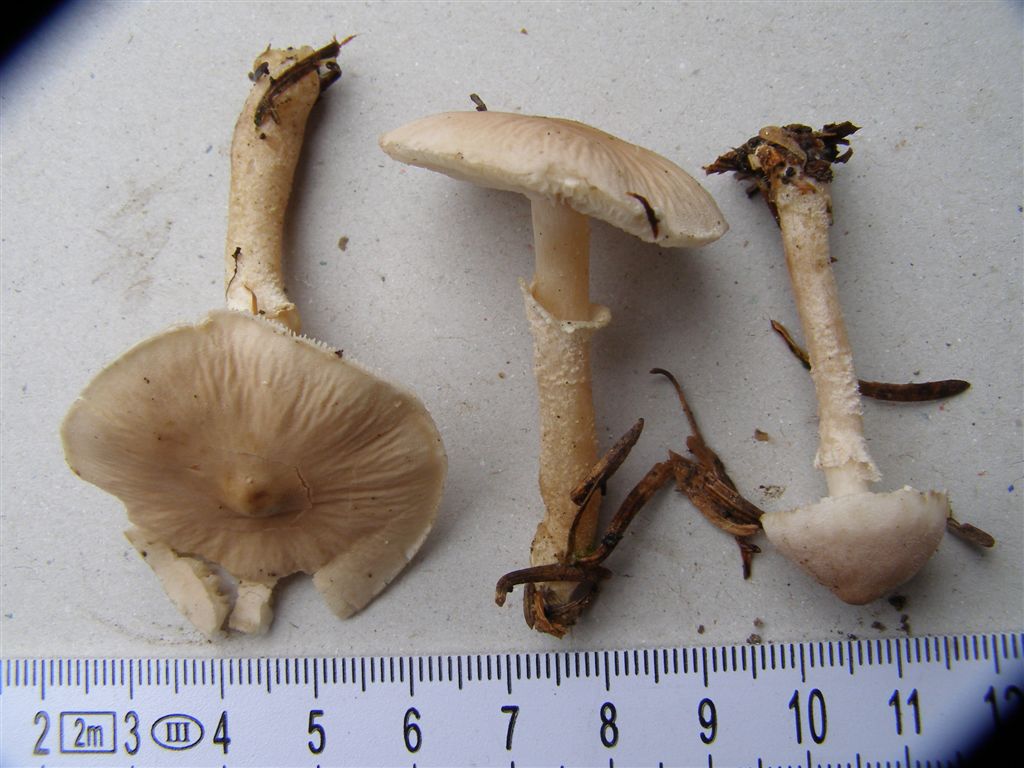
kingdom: Fungi
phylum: Basidiomycota
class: Agaricomycetes
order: Agaricales
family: Tricholomataceae
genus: Cystoderma
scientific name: Cystoderma carcharias
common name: rødgrå grynhat
